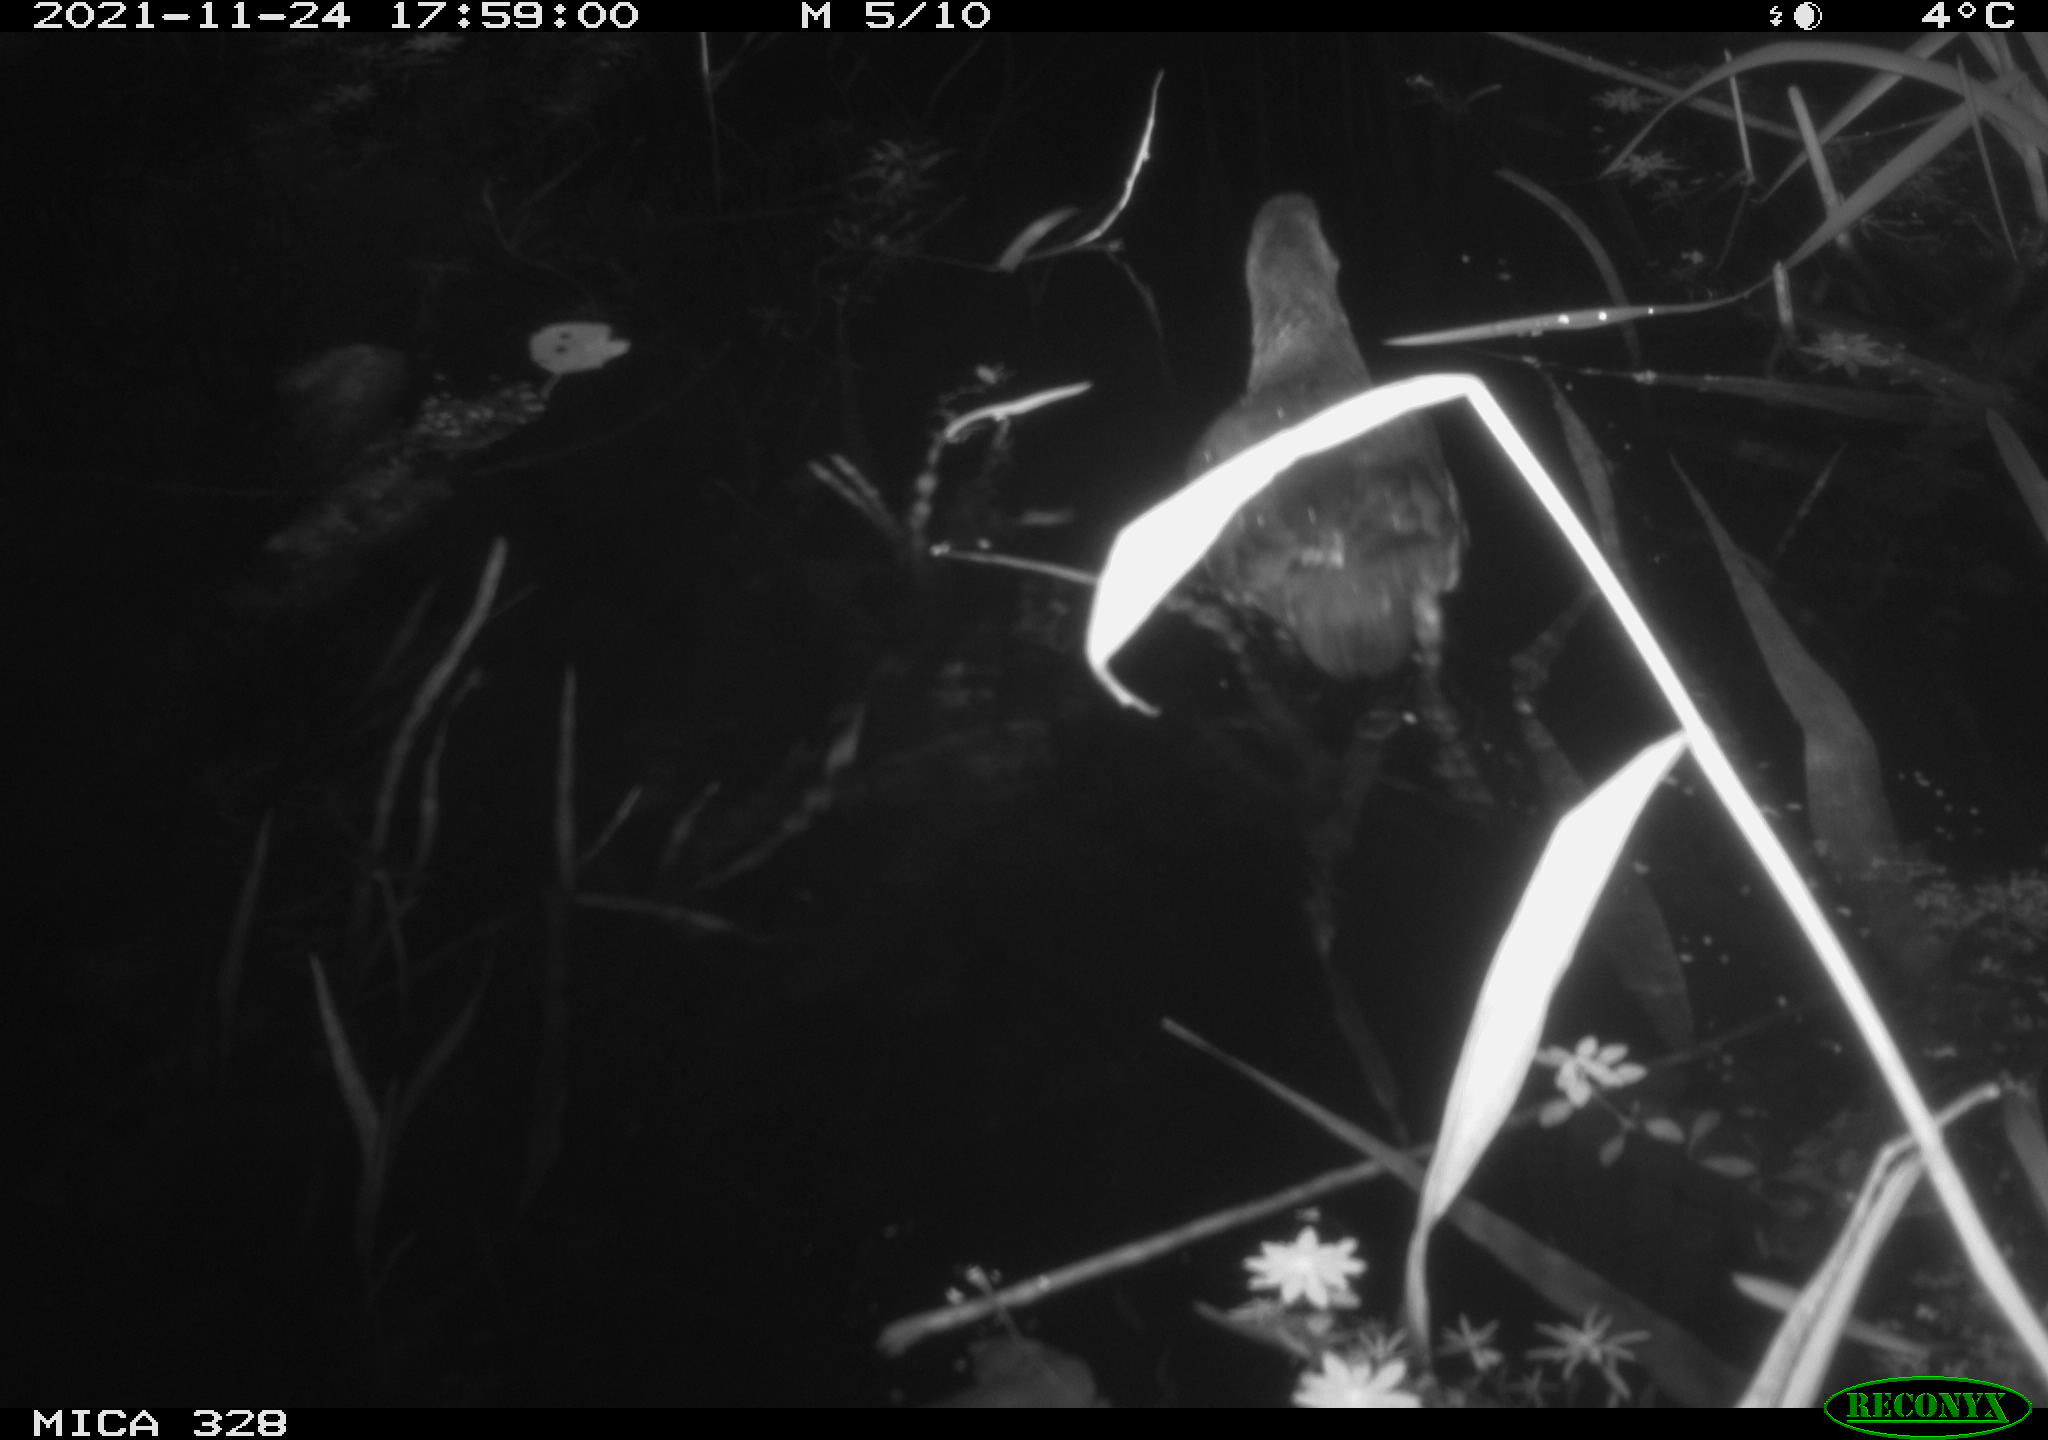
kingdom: Animalia
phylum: Chordata
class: Aves
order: Gruiformes
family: Rallidae
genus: Gallinula
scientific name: Gallinula chloropus
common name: Common moorhen
